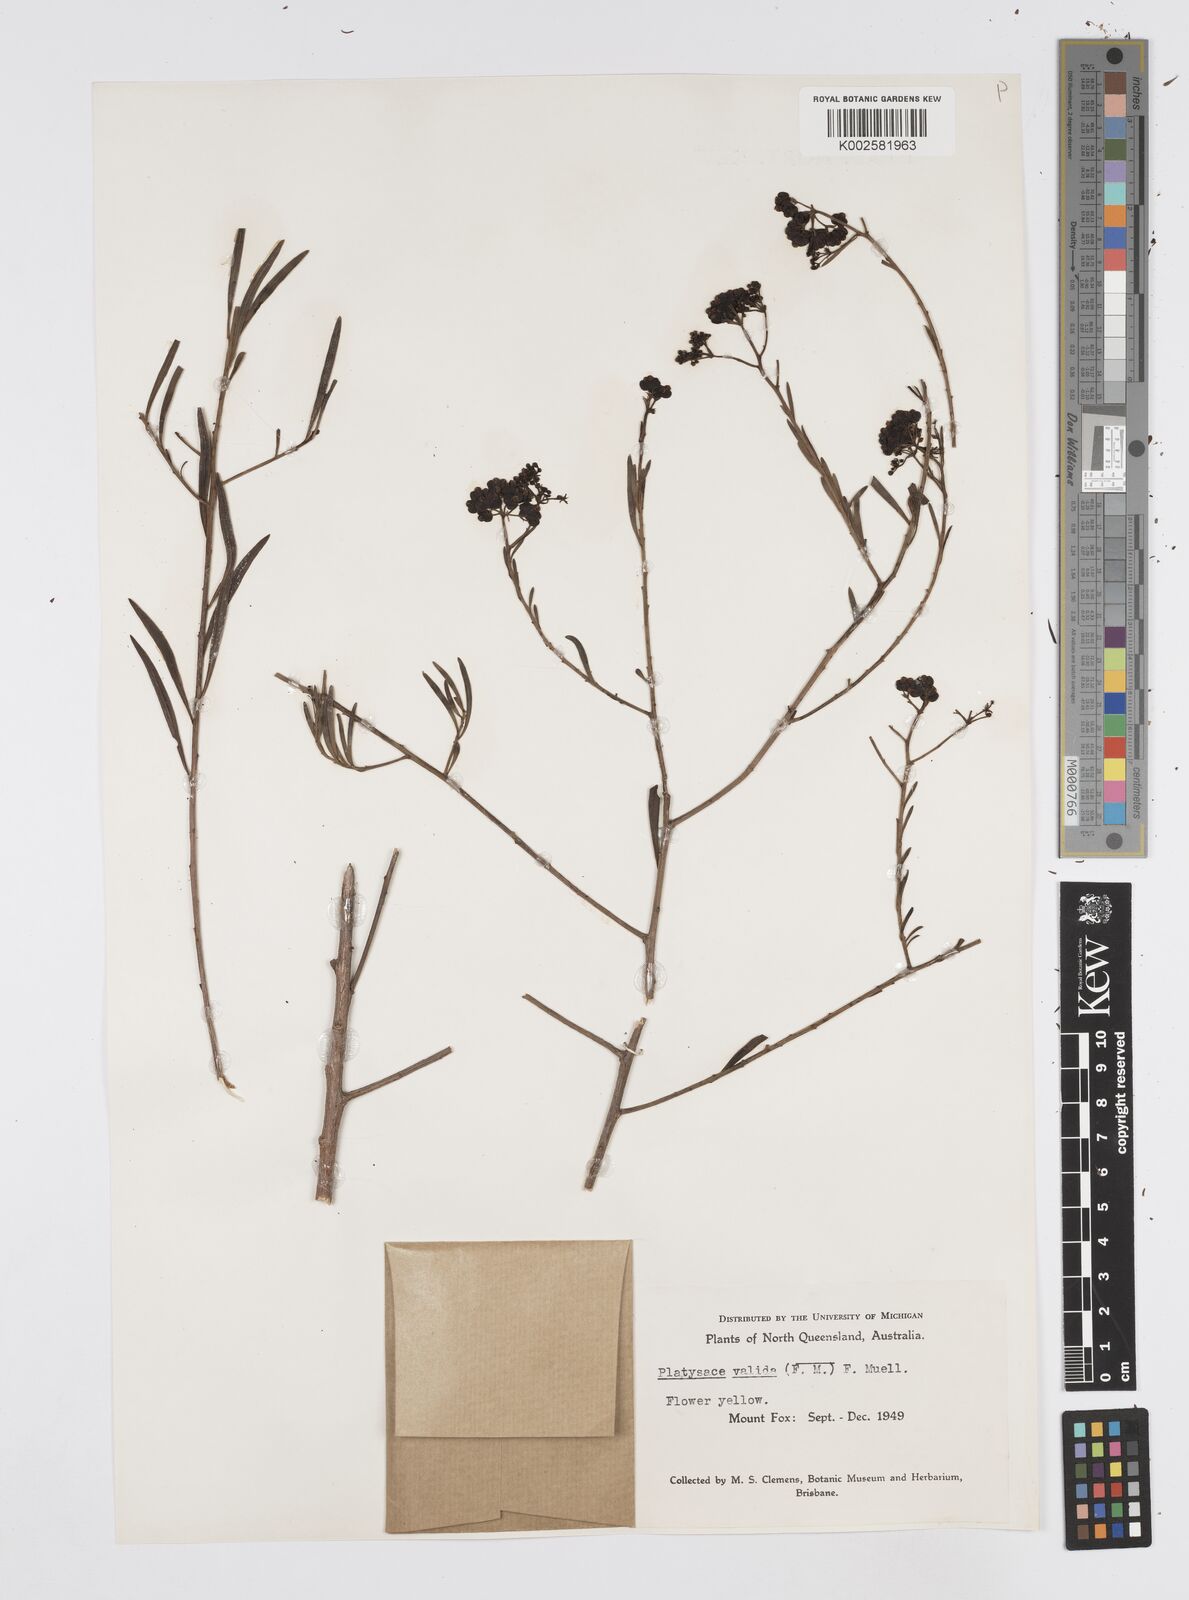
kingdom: Plantae
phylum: Tracheophyta
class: Magnoliopsida
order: Apiales
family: Apiaceae
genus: Platysace
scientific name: Platysace valida
